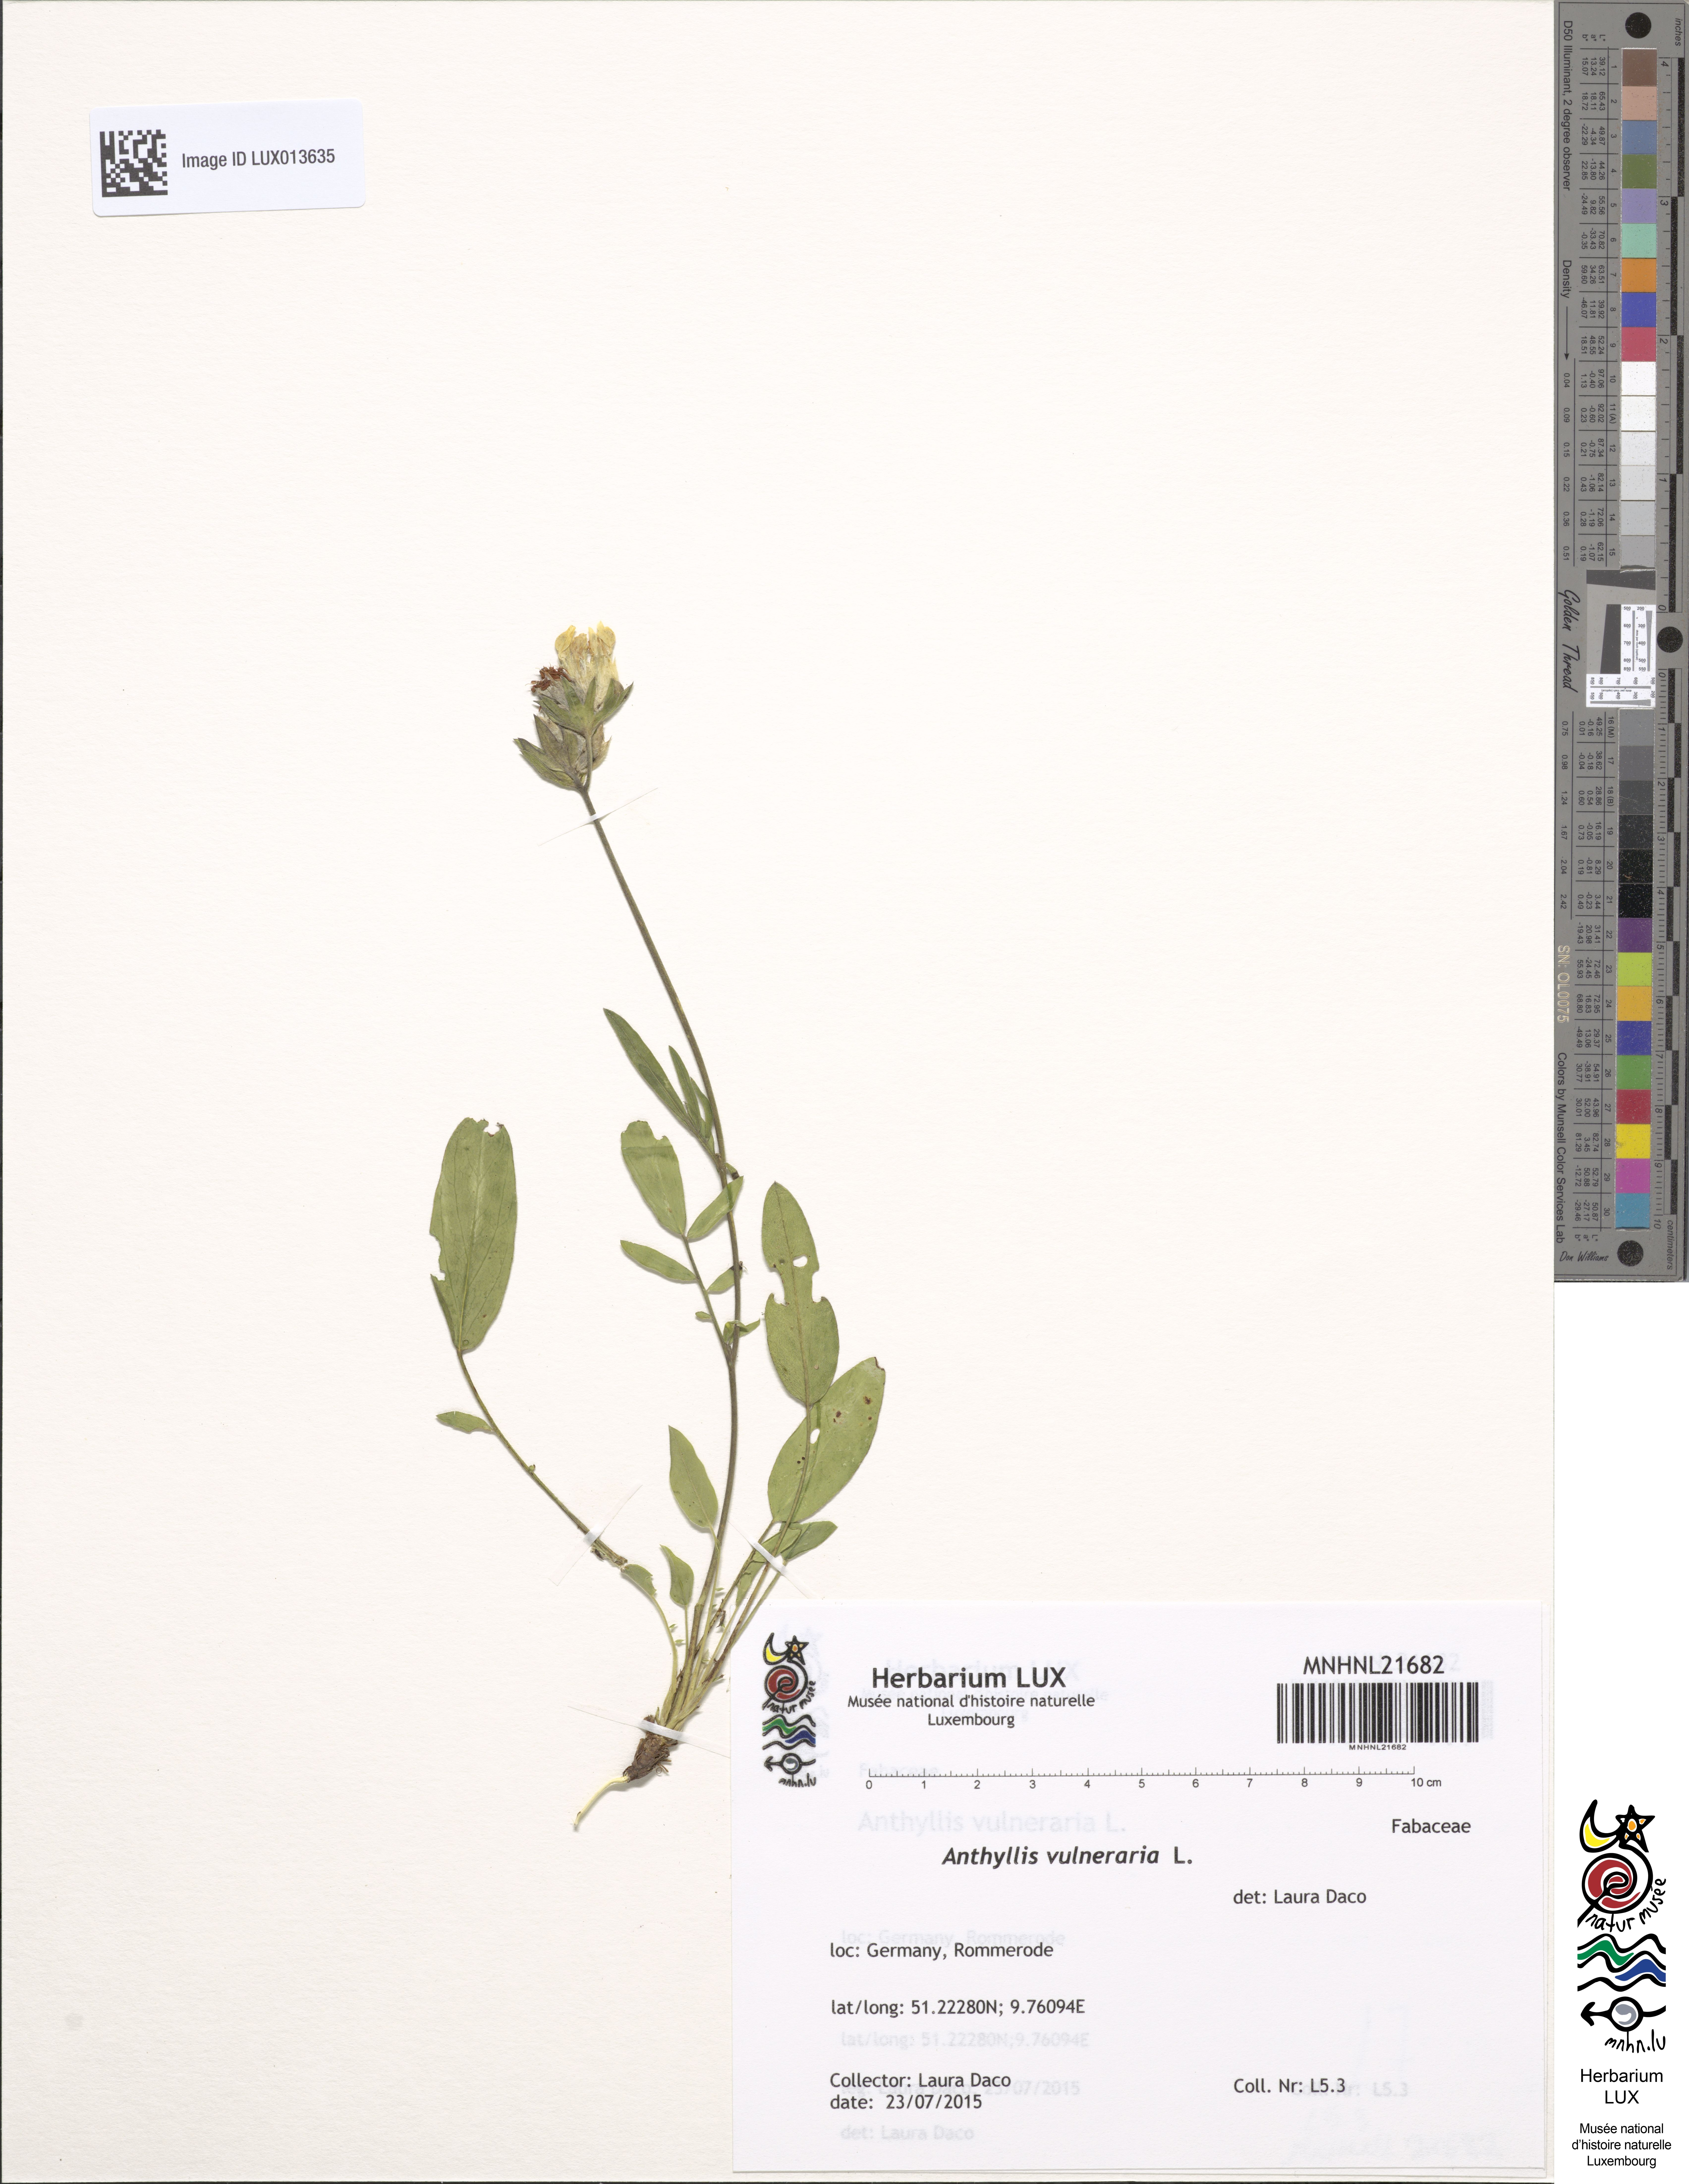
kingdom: Plantae
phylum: Tracheophyta
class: Magnoliopsida
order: Fabales
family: Fabaceae
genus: Anthyllis
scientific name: Anthyllis vulneraria
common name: Kidney vetch
